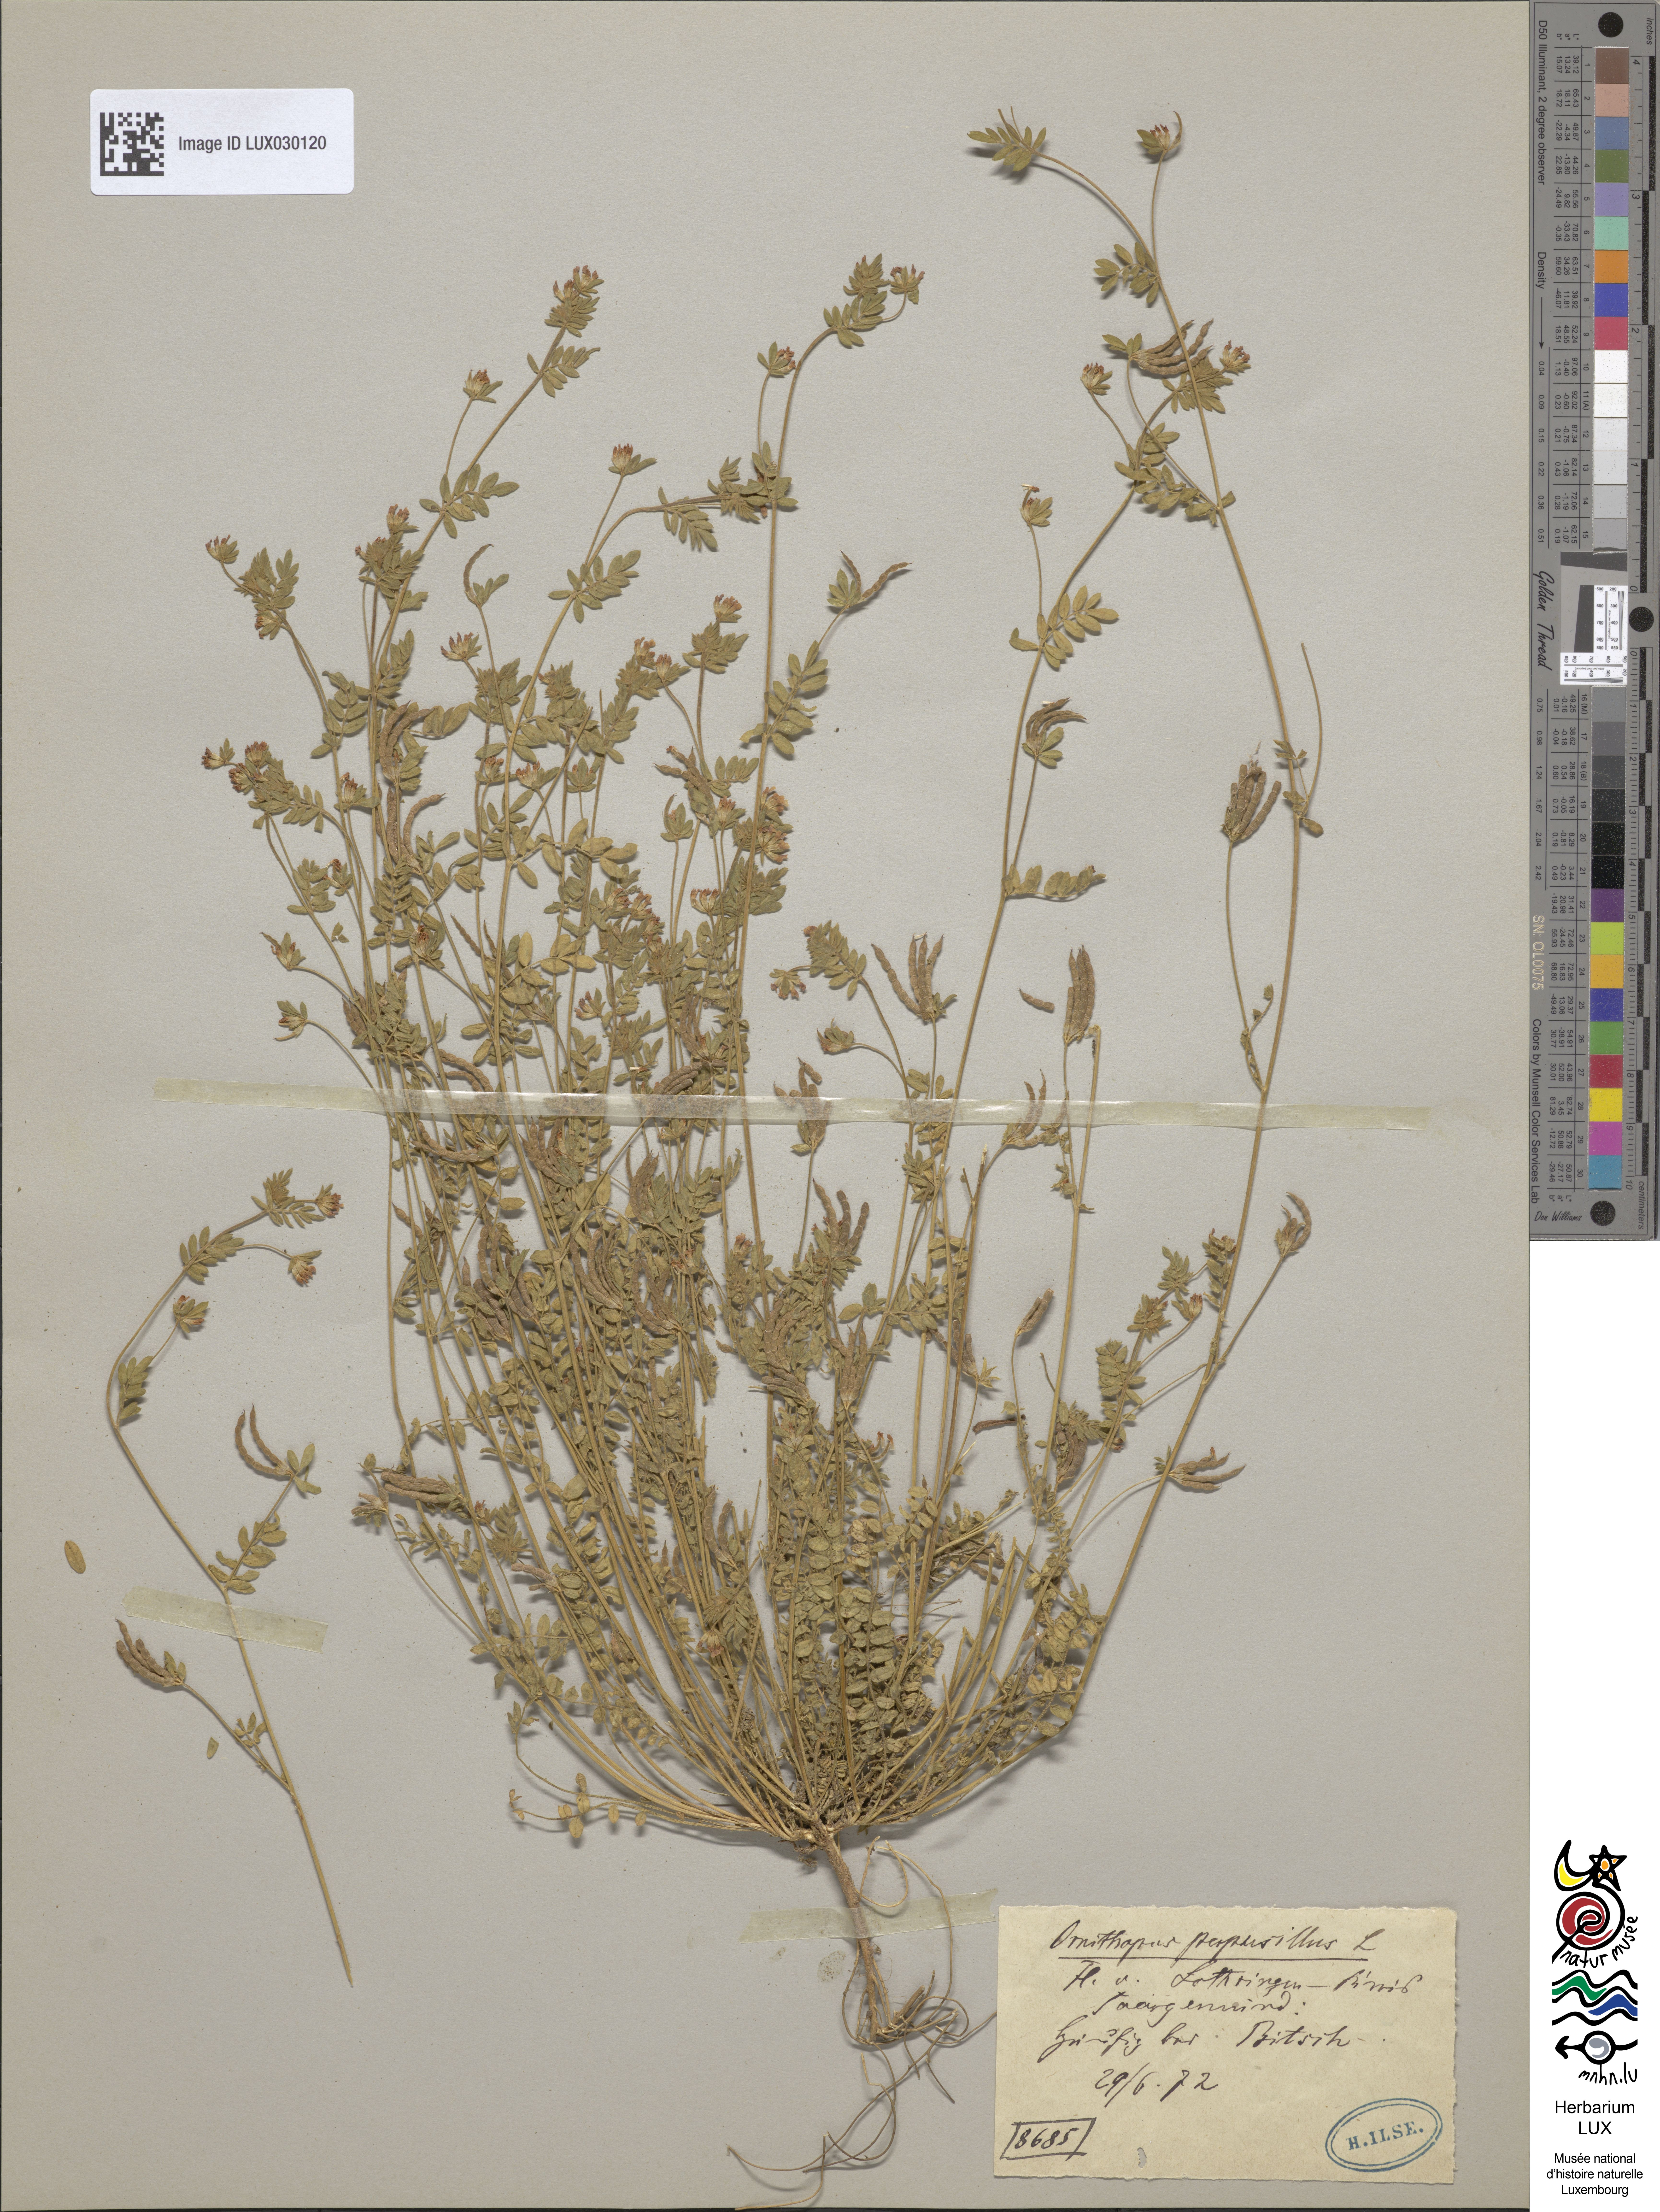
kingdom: Plantae
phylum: Tracheophyta
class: Magnoliopsida
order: Fabales
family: Fabaceae
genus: Ornithopus
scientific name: Ornithopus perpusillus
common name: Bird's-foot
